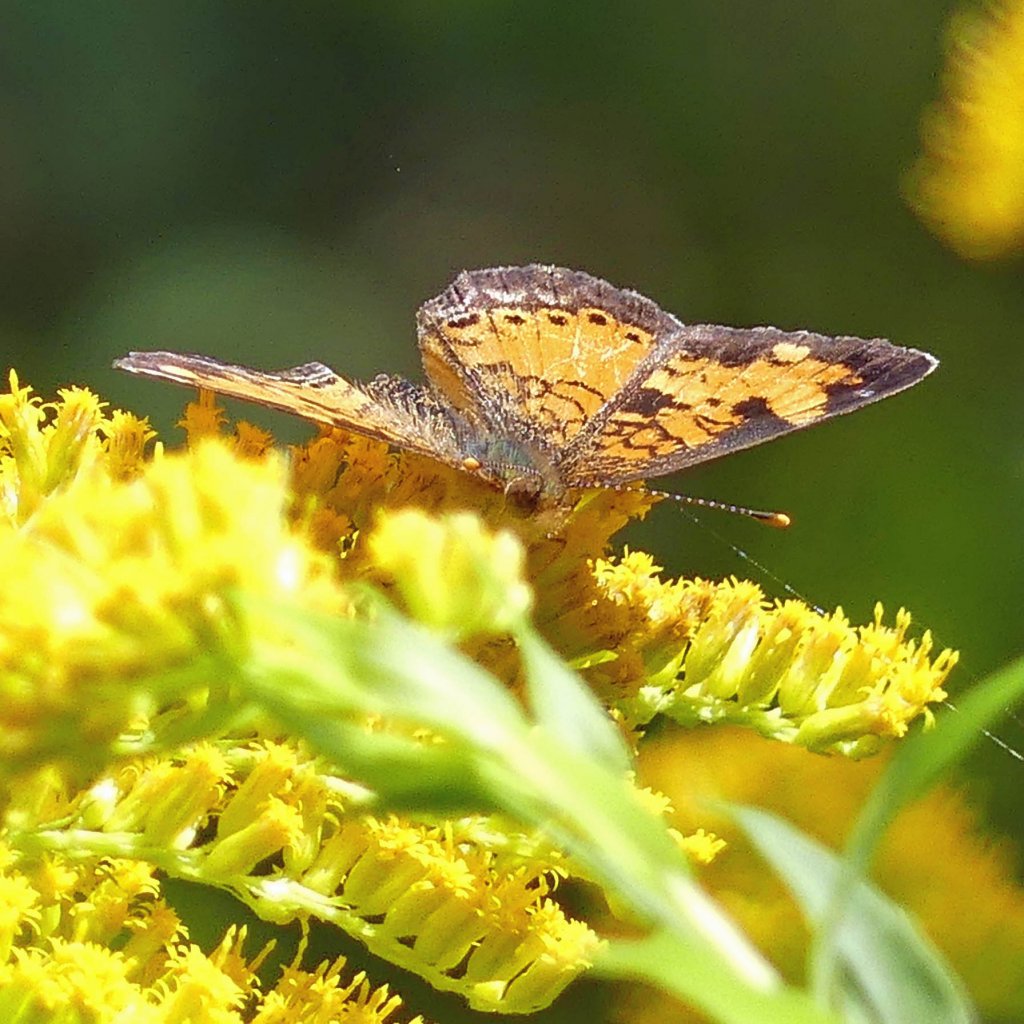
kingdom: Animalia
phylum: Arthropoda
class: Insecta
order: Lepidoptera
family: Nymphalidae
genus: Phyciodes
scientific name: Phyciodes tharos
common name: Northern Crescent
